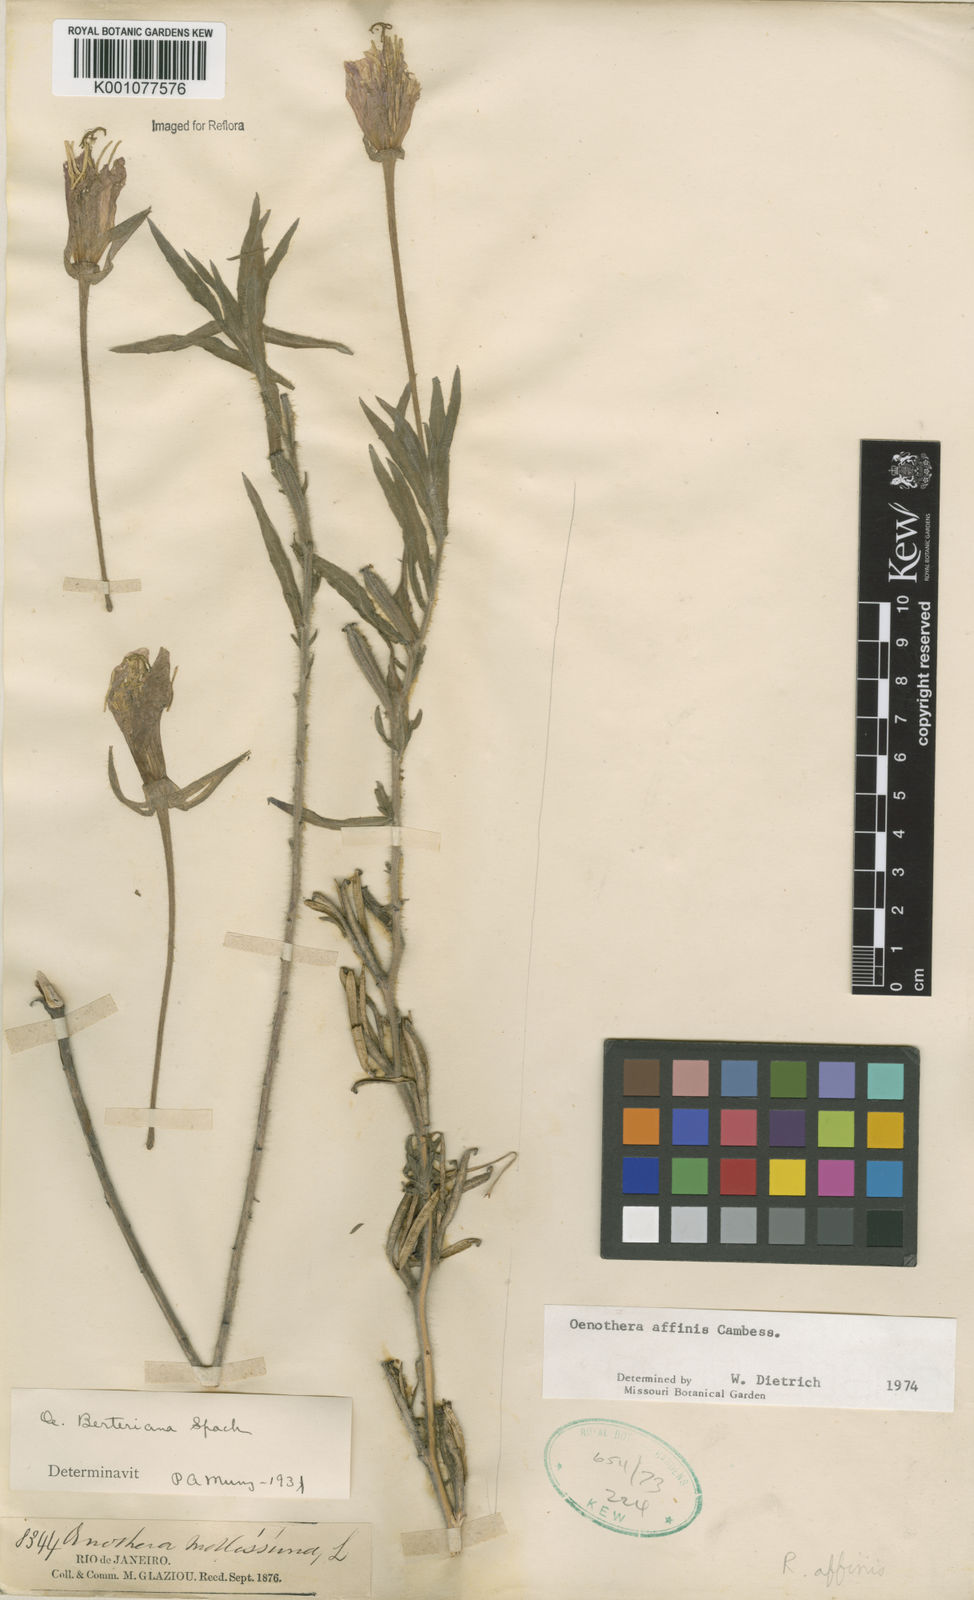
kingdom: Plantae
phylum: Tracheophyta
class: Magnoliopsida
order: Myrtales
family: Onagraceae
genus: Oenothera
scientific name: Oenothera affinis
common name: Longflower evening primrose
